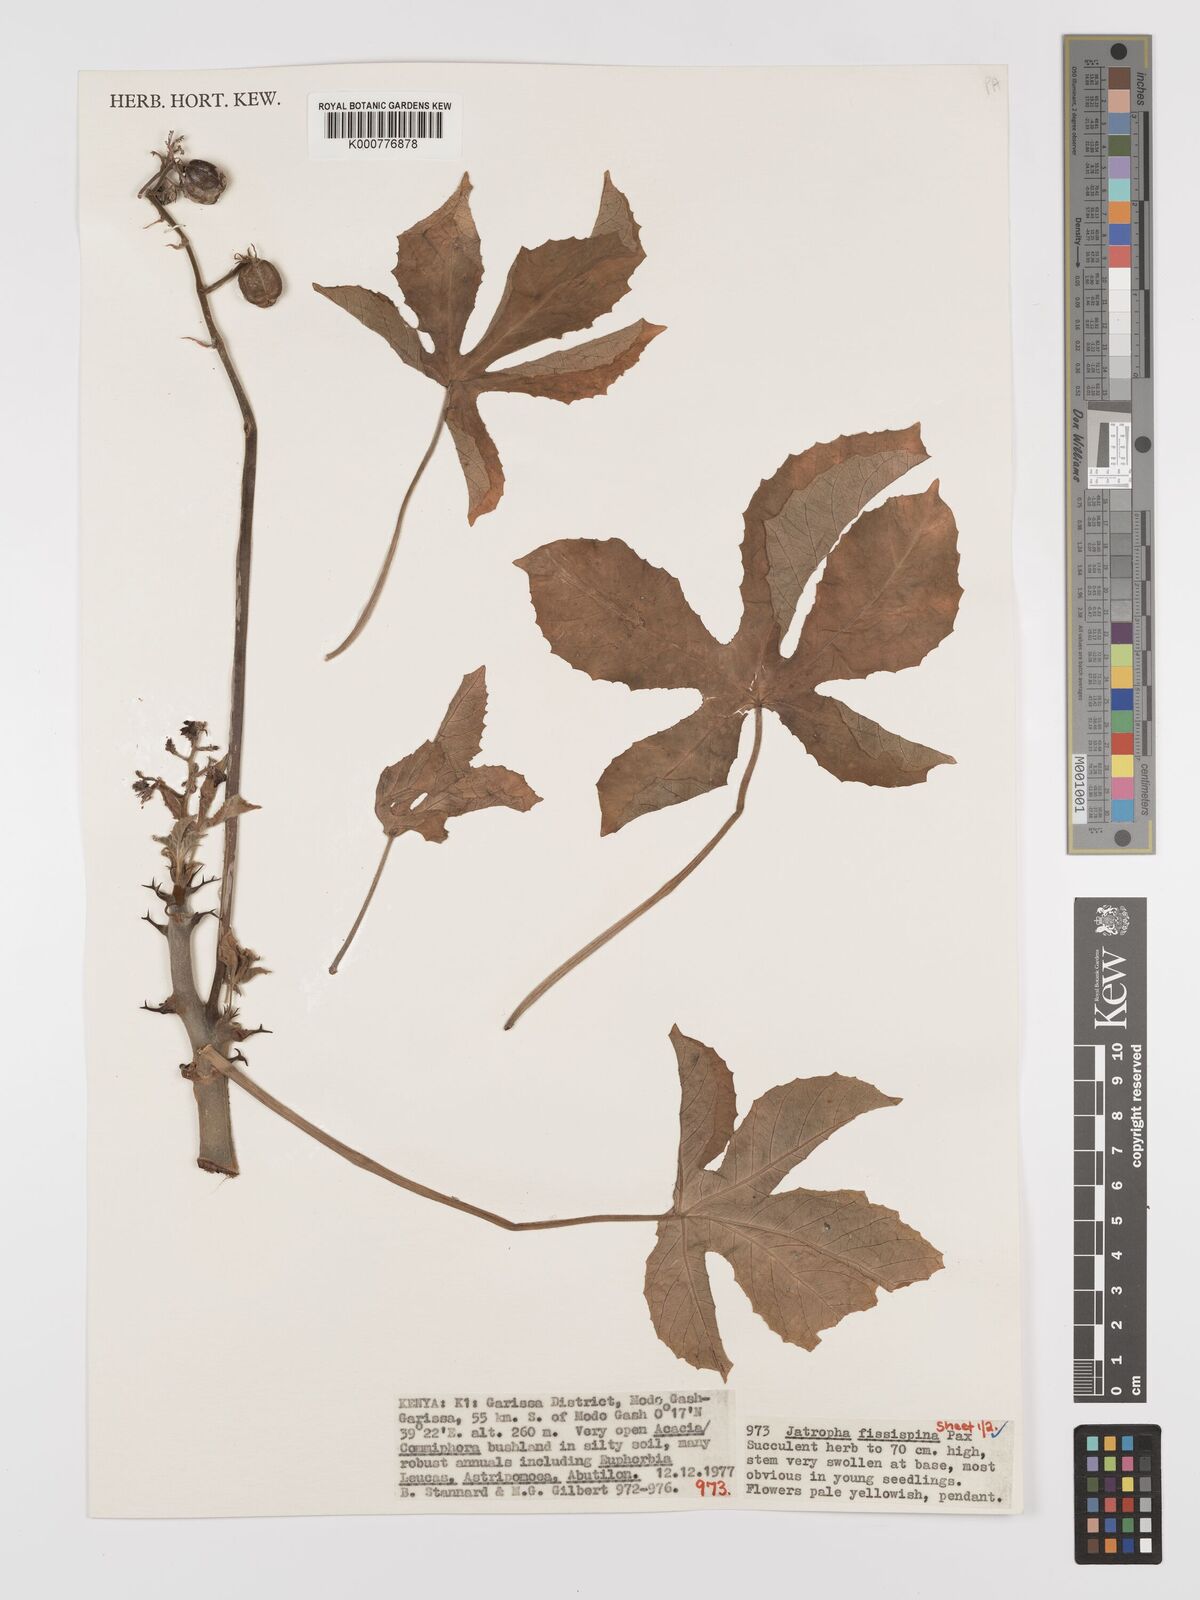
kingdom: Plantae
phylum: Tracheophyta
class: Magnoliopsida
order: Malpighiales
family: Euphorbiaceae
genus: Jatropha
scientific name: Jatropha ellenbeckii
